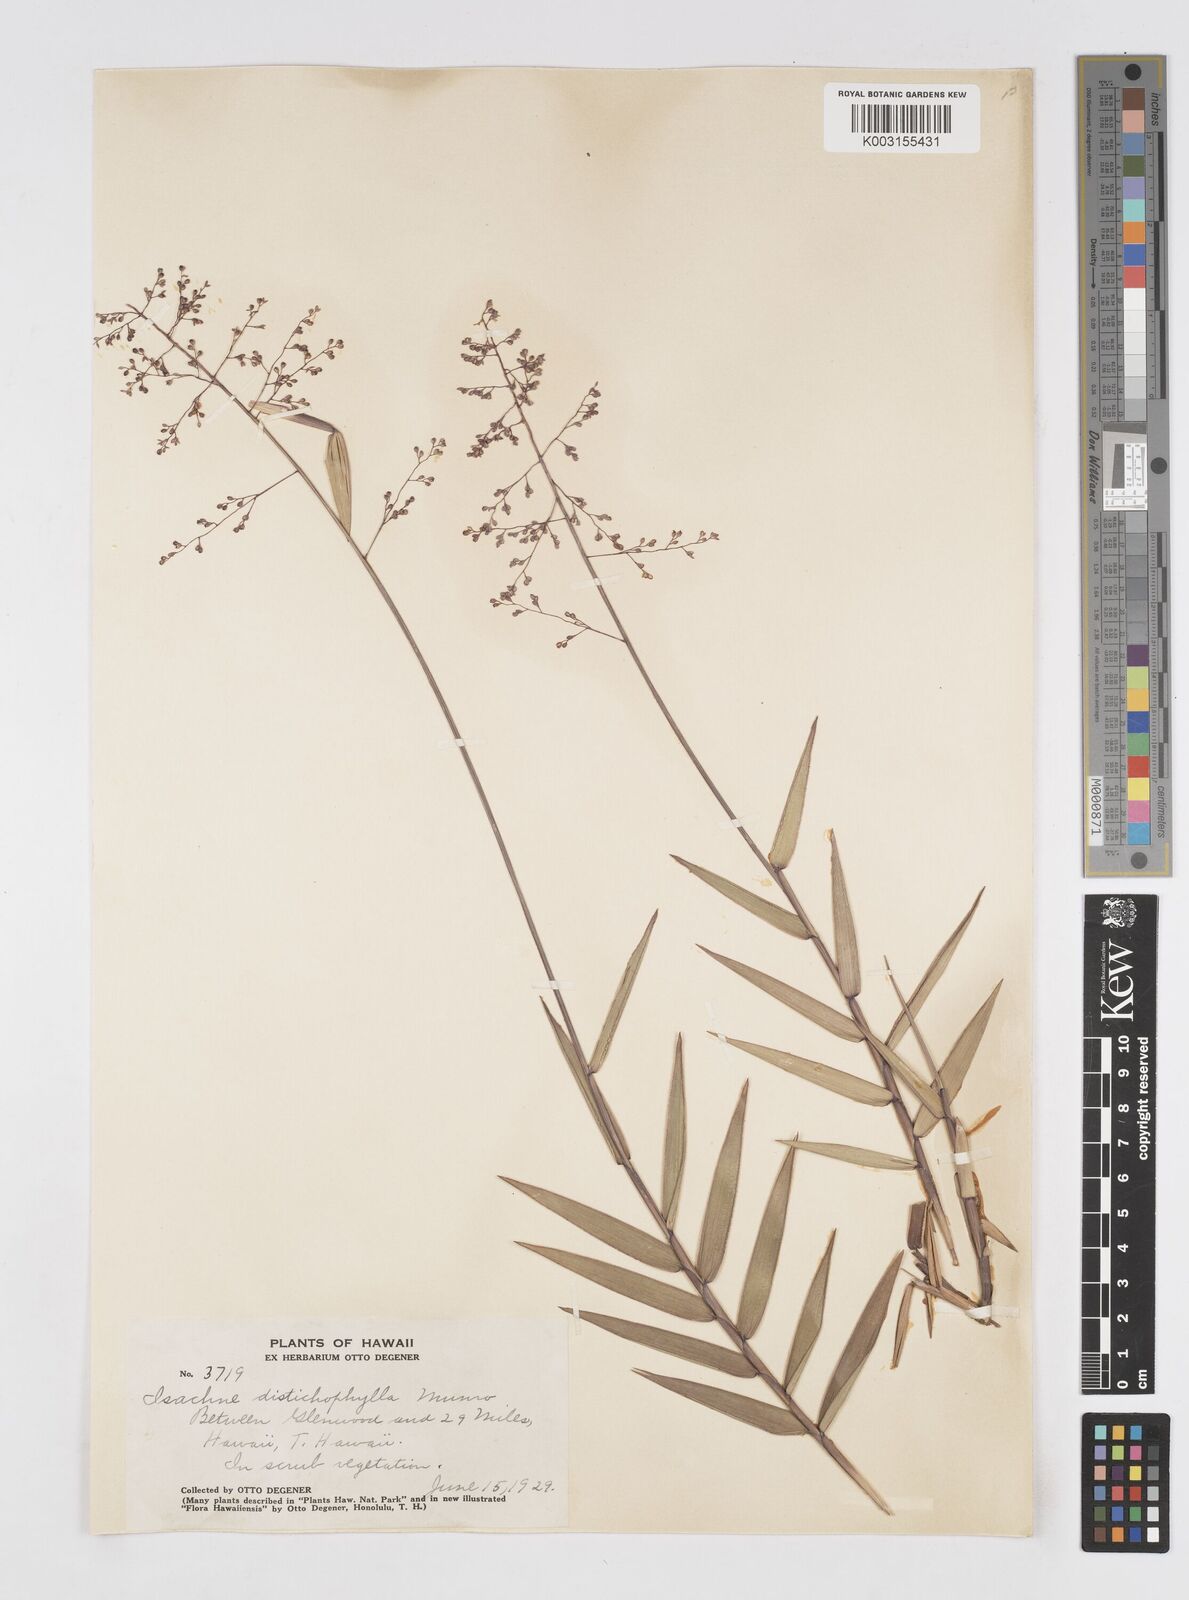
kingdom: Plantae
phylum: Tracheophyta
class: Liliopsida
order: Poales
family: Poaceae
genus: Isachne
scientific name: Isachne distichophylla
